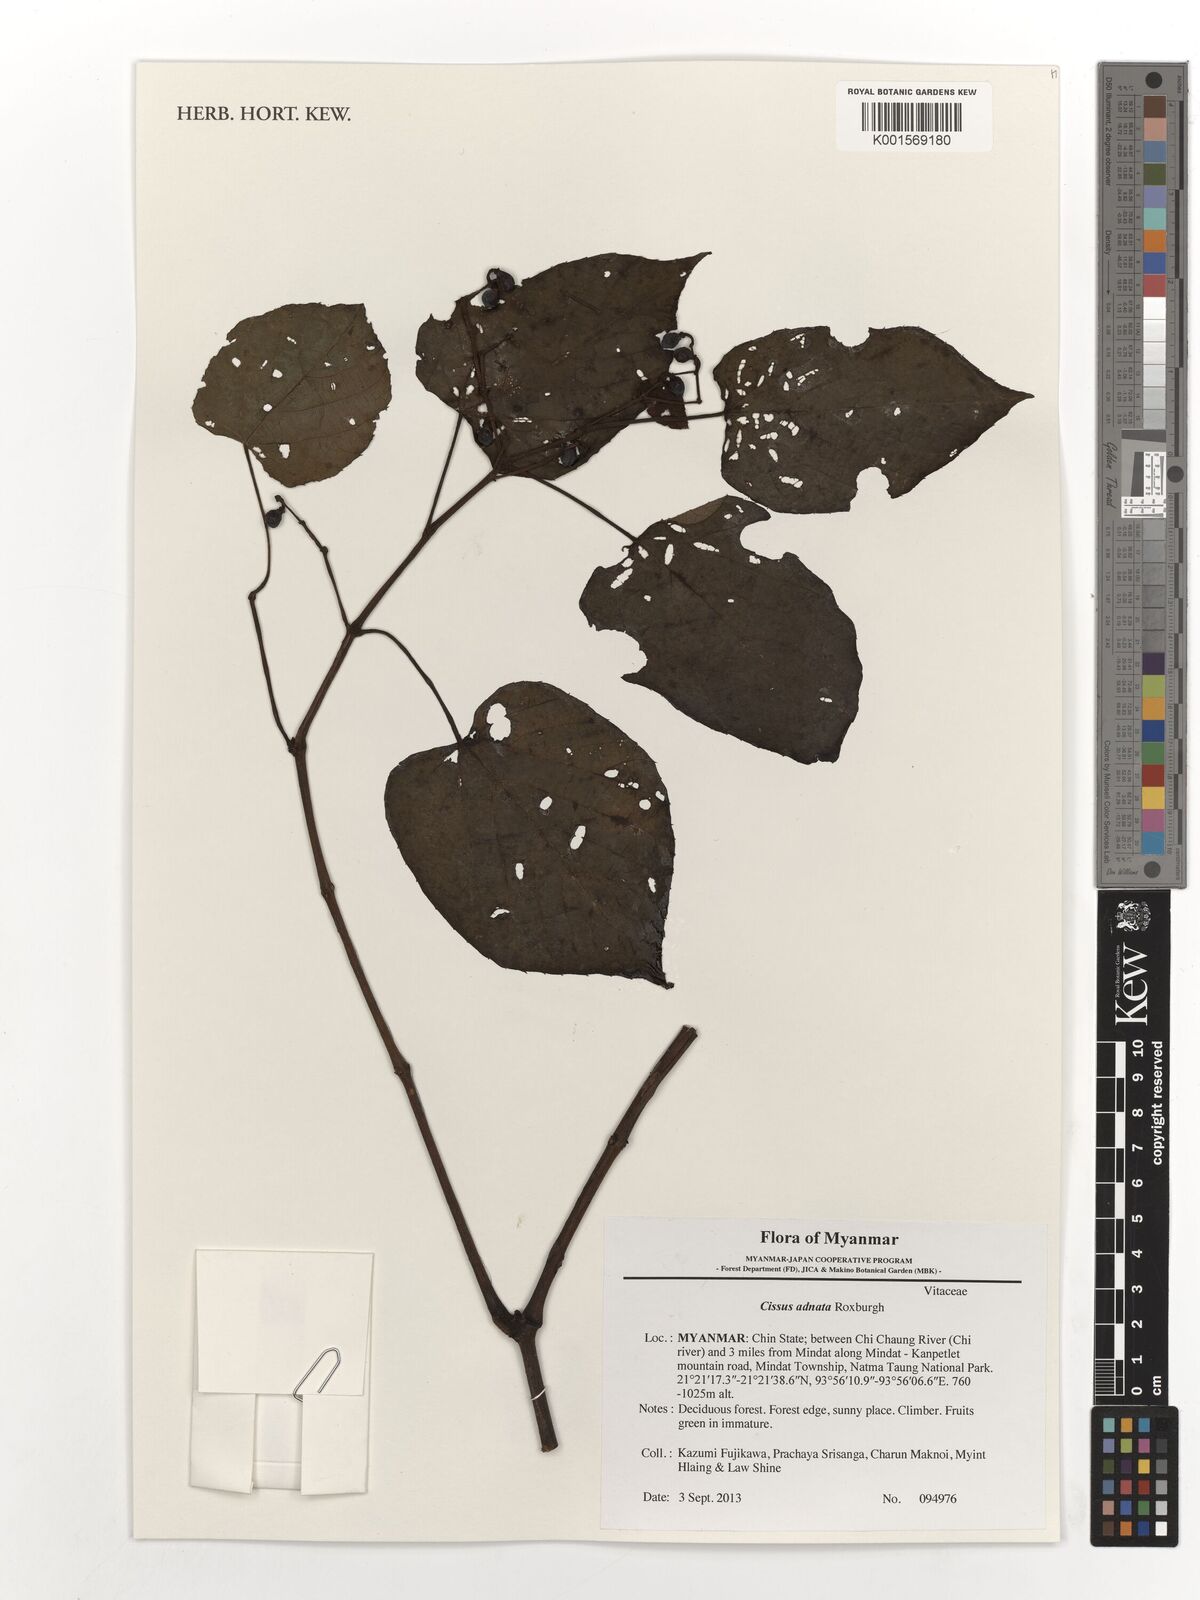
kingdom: Plantae
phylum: Tracheophyta
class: Magnoliopsida
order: Vitales
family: Vitaceae
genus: Cissus
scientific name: Cissus adnata
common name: Heart-leaf-grape
